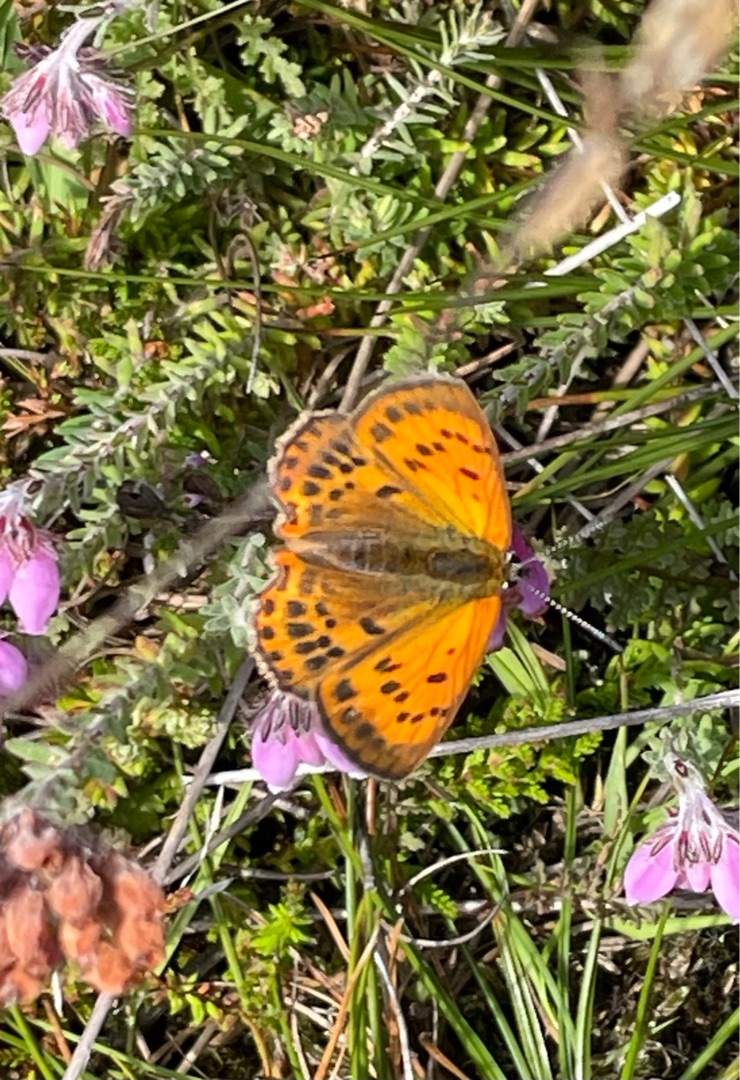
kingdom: Animalia
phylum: Arthropoda
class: Insecta
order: Lepidoptera
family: Lycaenidae
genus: Lycaena
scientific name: Lycaena virgaureae
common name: Dukatsommerfugl
